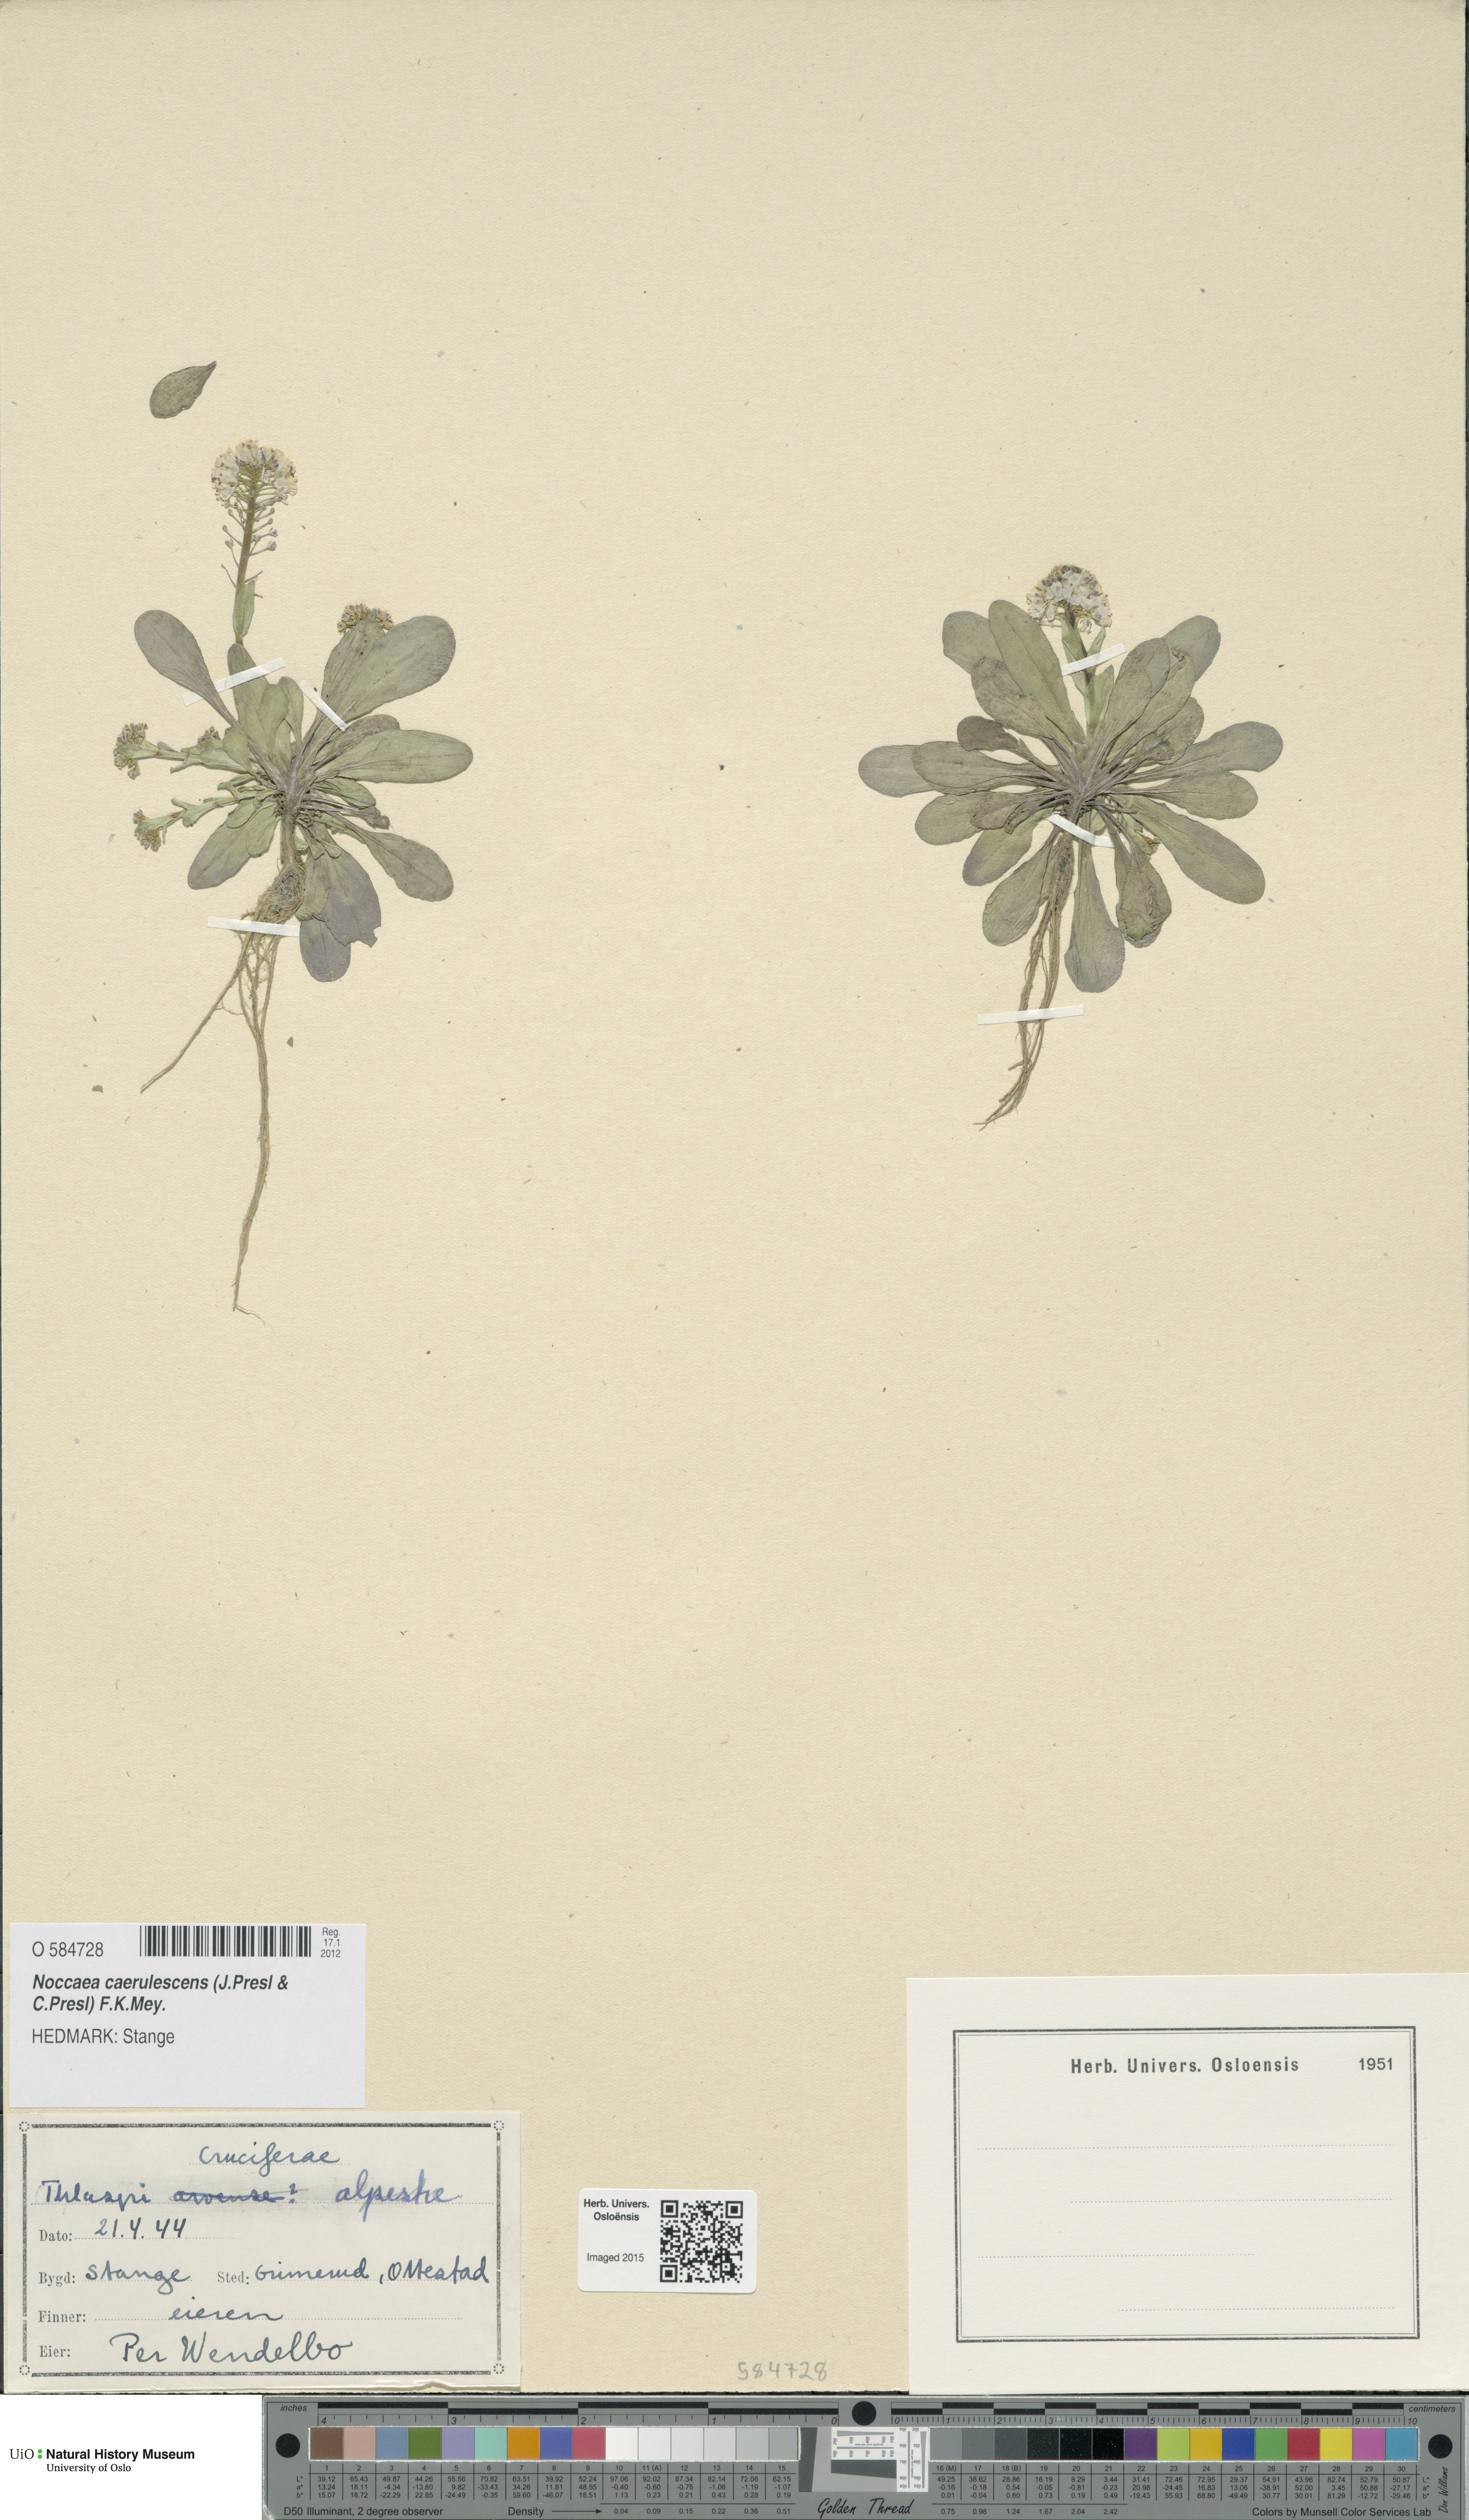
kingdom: Plantae
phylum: Tracheophyta
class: Magnoliopsida
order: Brassicales
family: Brassicaceae
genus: Noccaea
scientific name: Noccaea caerulescens
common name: Alpine pennycress
